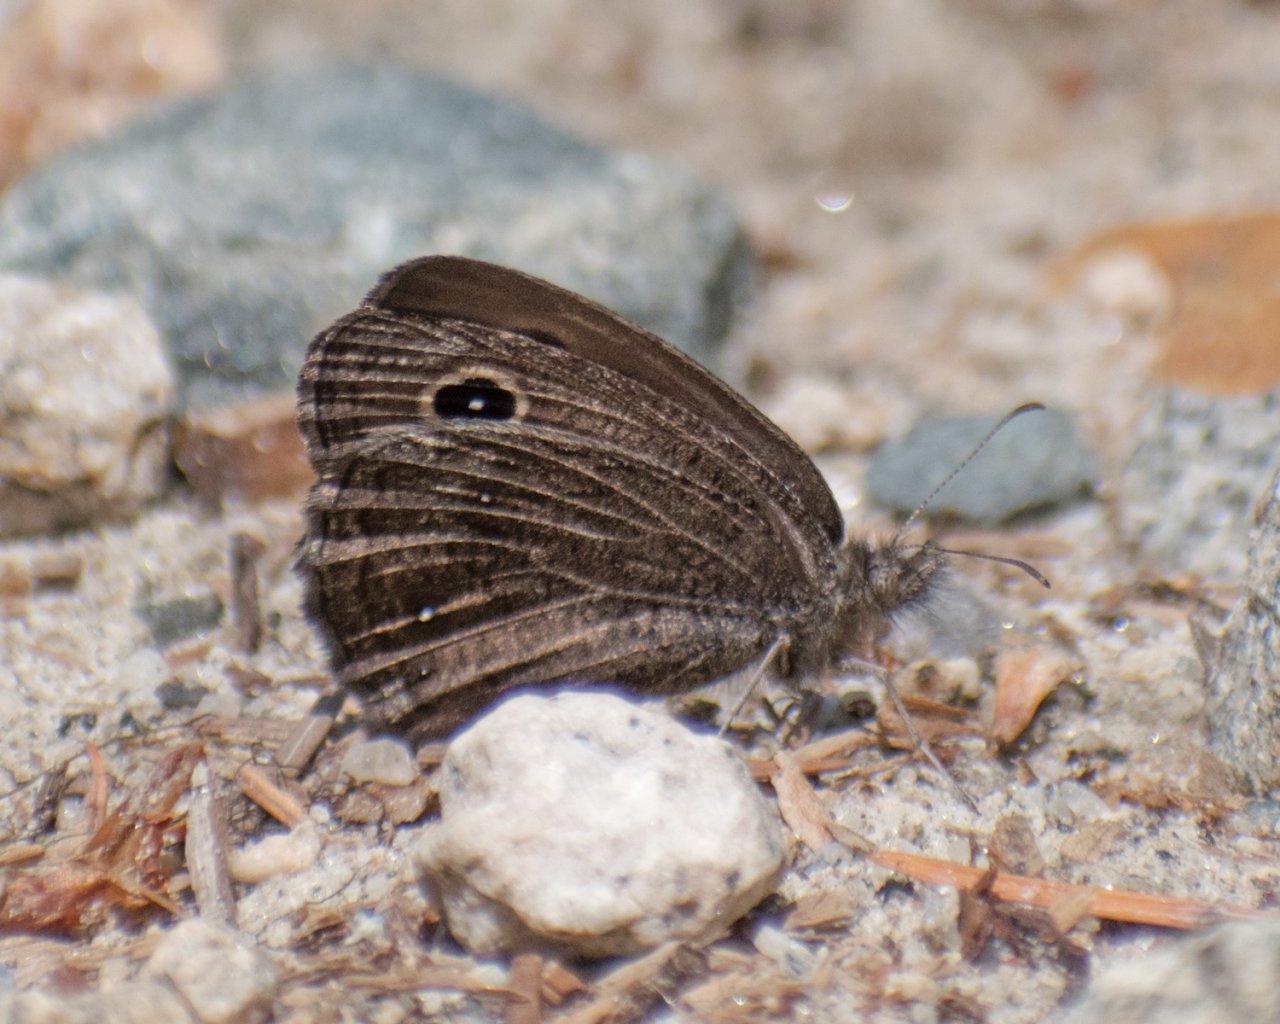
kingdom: Animalia
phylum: Arthropoda
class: Insecta
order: Lepidoptera
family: Nymphalidae
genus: Cercyonis
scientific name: Cercyonis oetus
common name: Small Wood-Nymph
